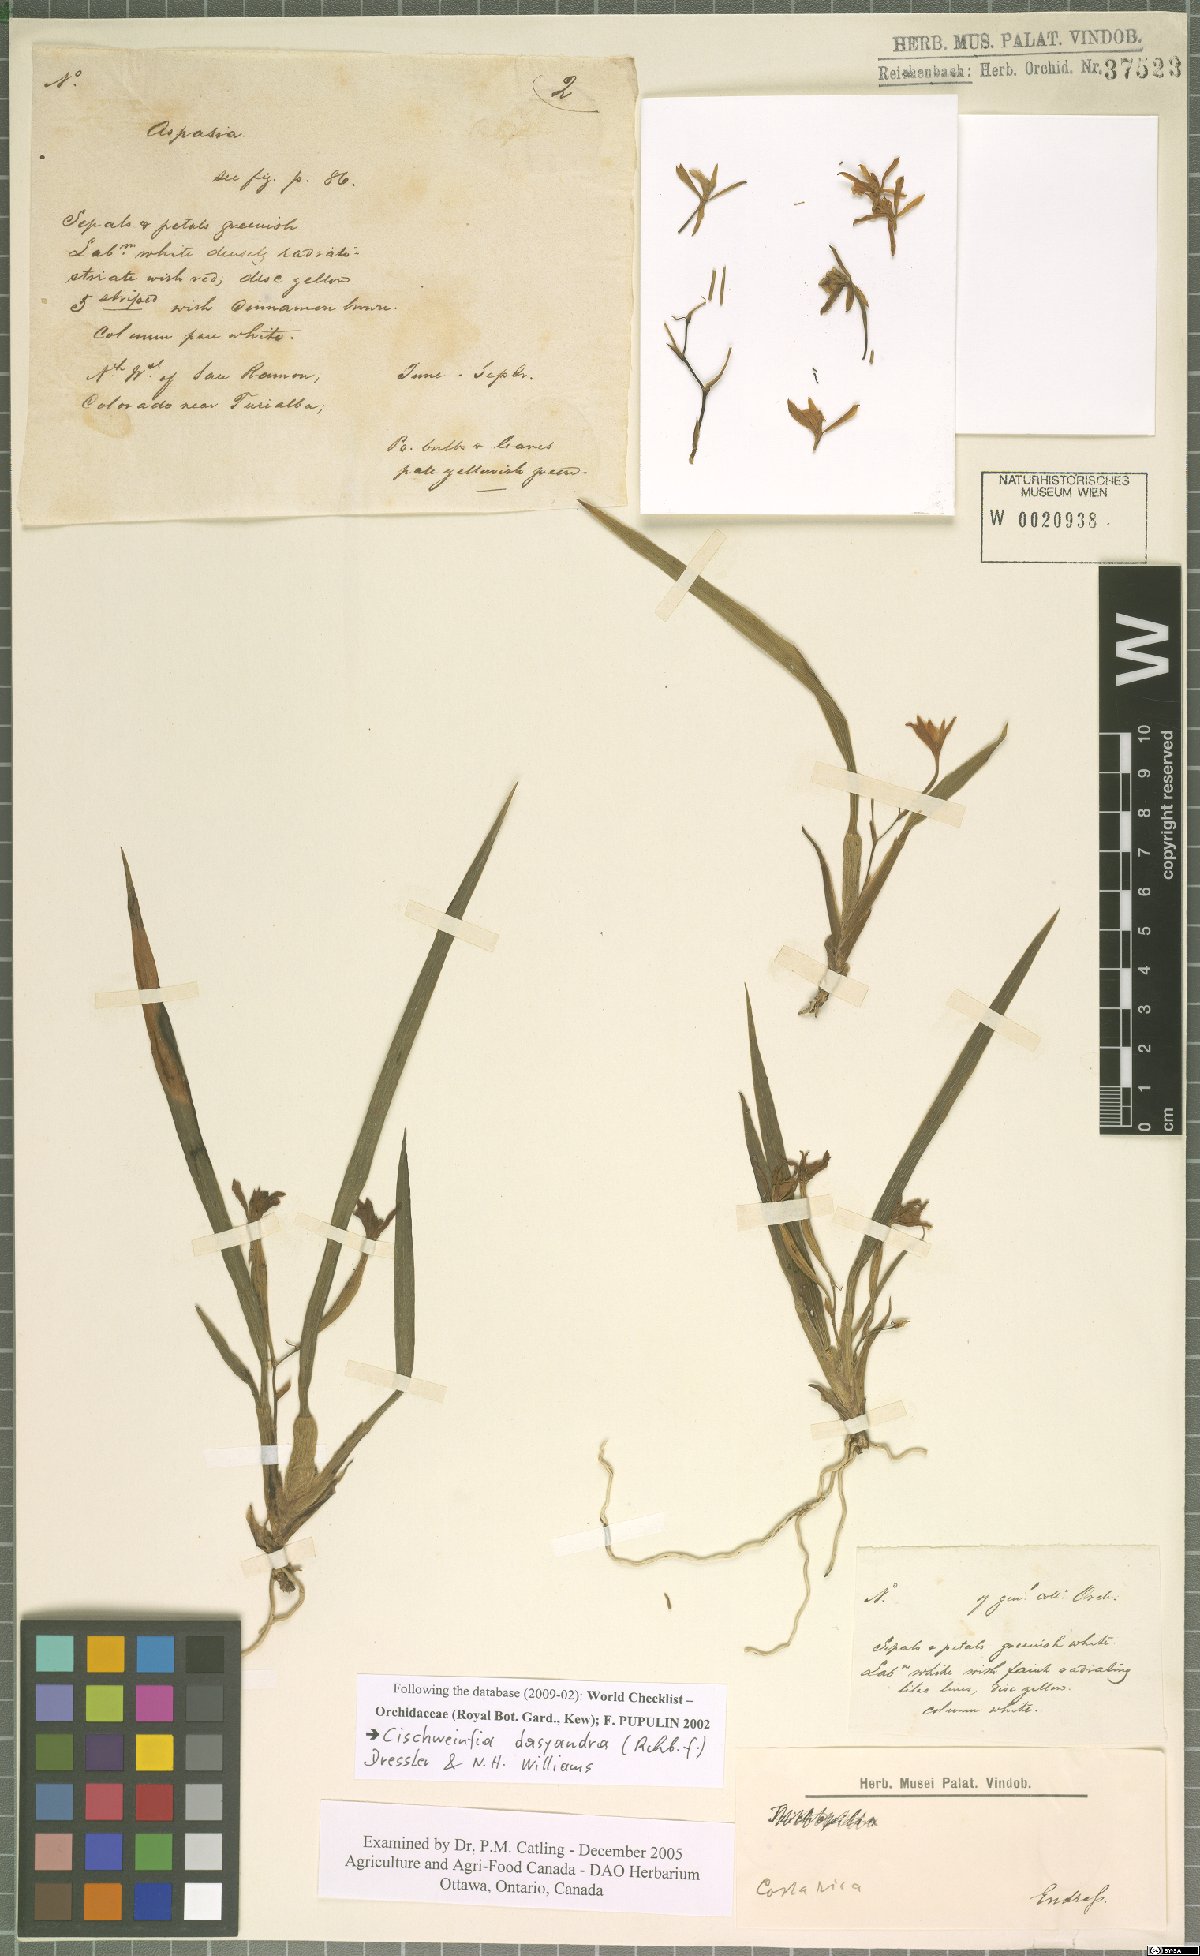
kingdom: Plantae
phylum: Tracheophyta
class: Liliopsida
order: Asparagales
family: Orchidaceae
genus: Cischweinfia
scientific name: Cischweinfia dasyandra
